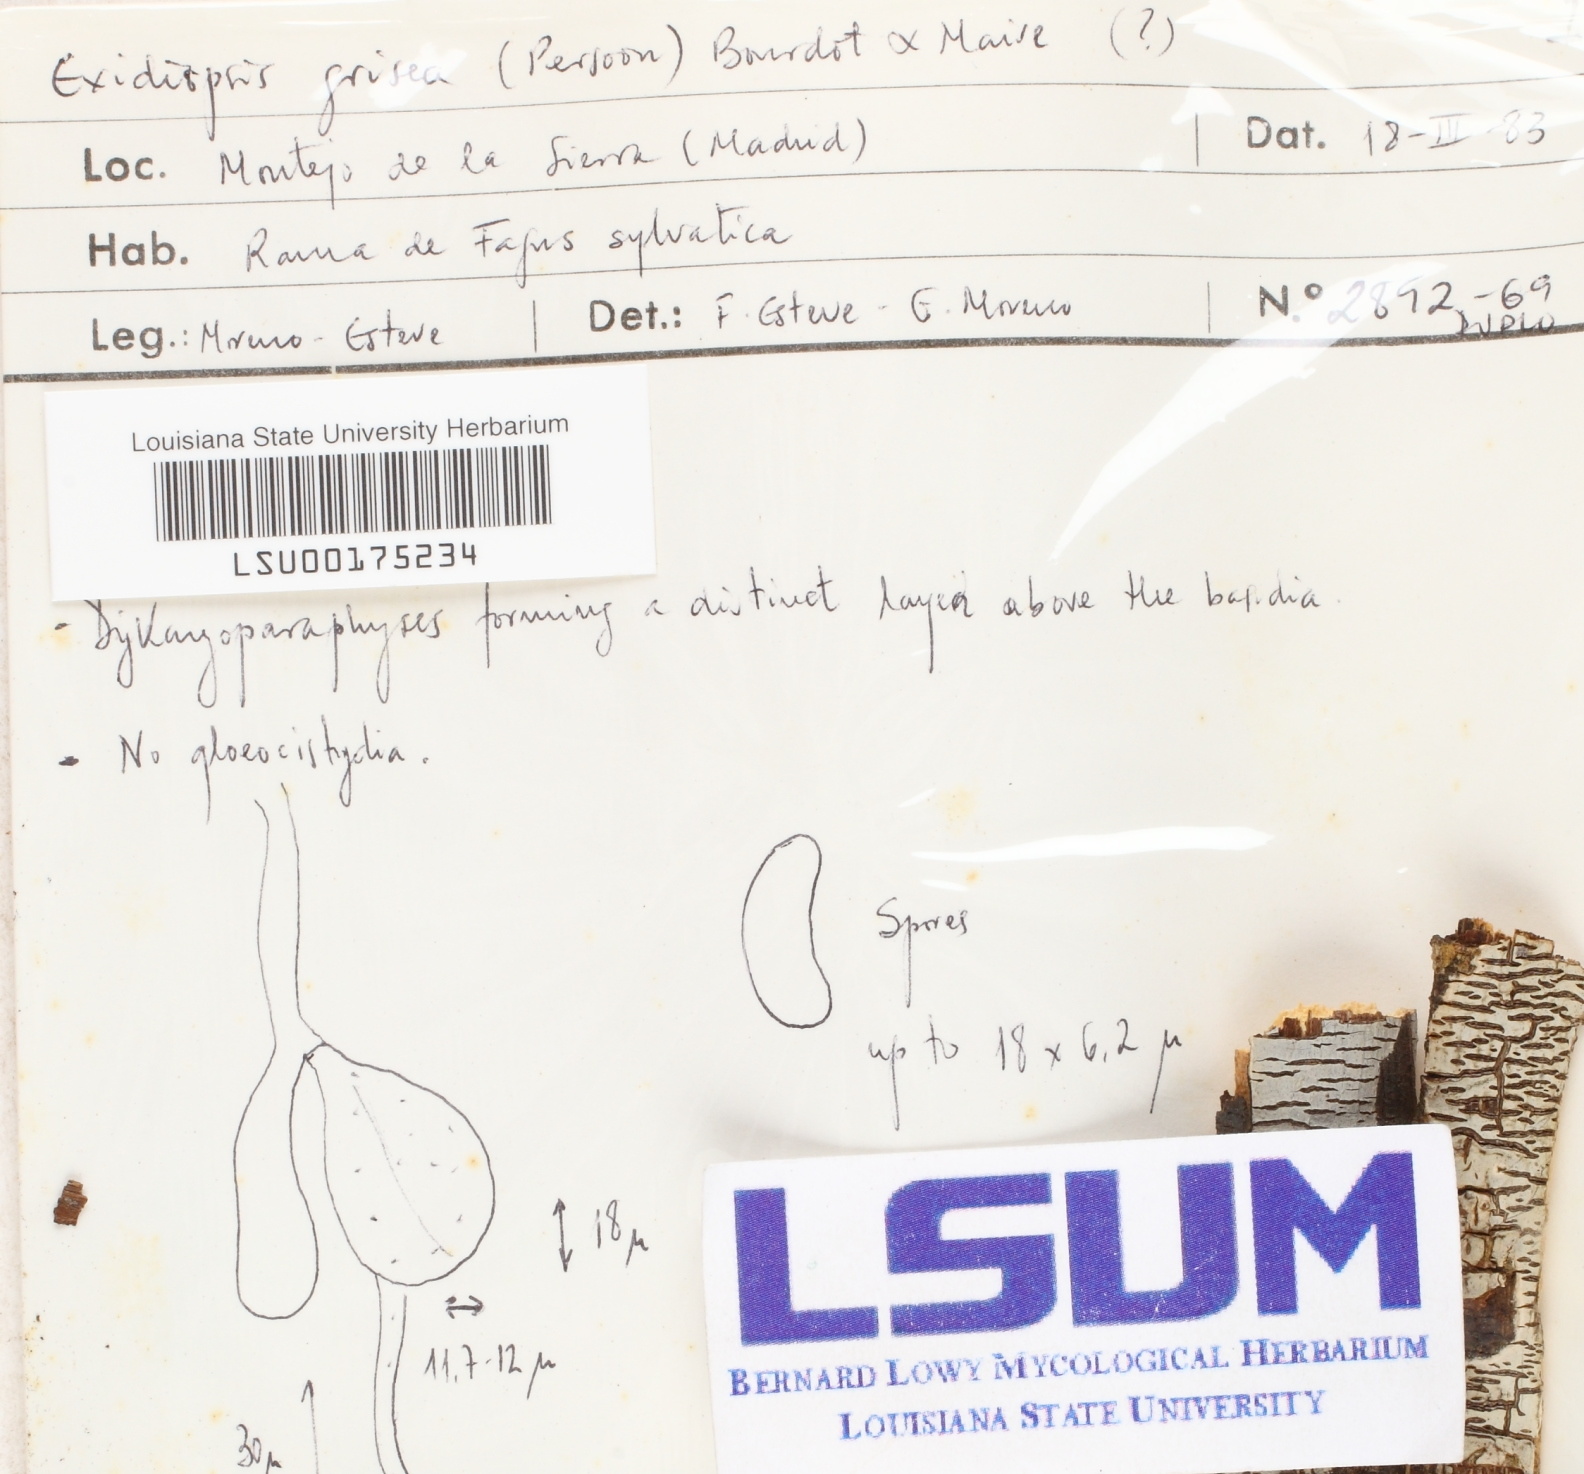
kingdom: Fungi
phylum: Basidiomycota
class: Agaricomycetes
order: Sebacinales
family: Sebacinaceae
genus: Sebacina
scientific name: Sebacina grisea
